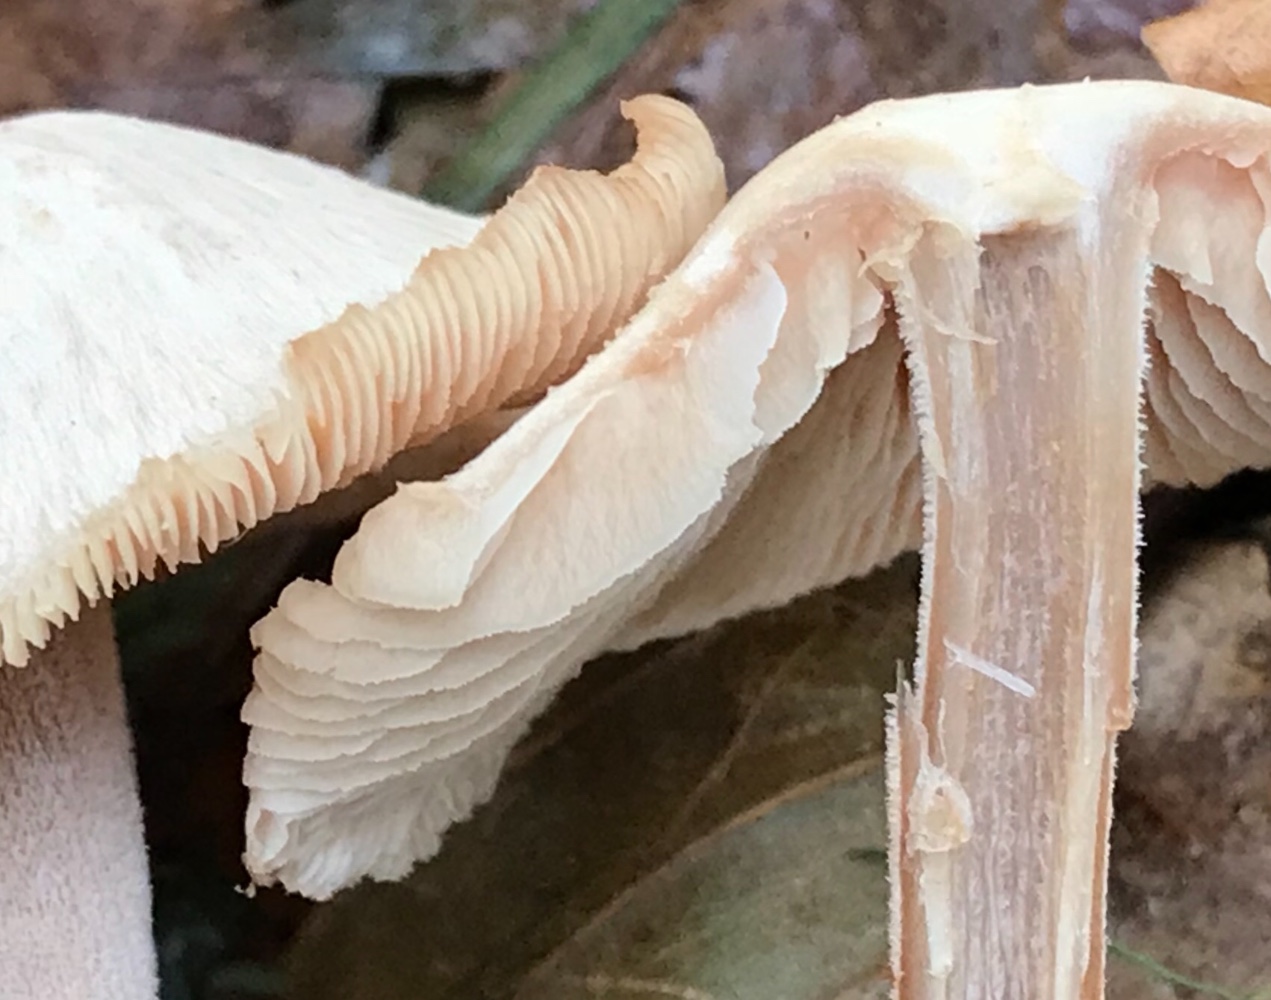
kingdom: Fungi
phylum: Basidiomycota
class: Agaricomycetes
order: Agaricales
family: Omphalotaceae
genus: Collybiopsis
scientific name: Collybiopsis confluens
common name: knippe-fladhat
